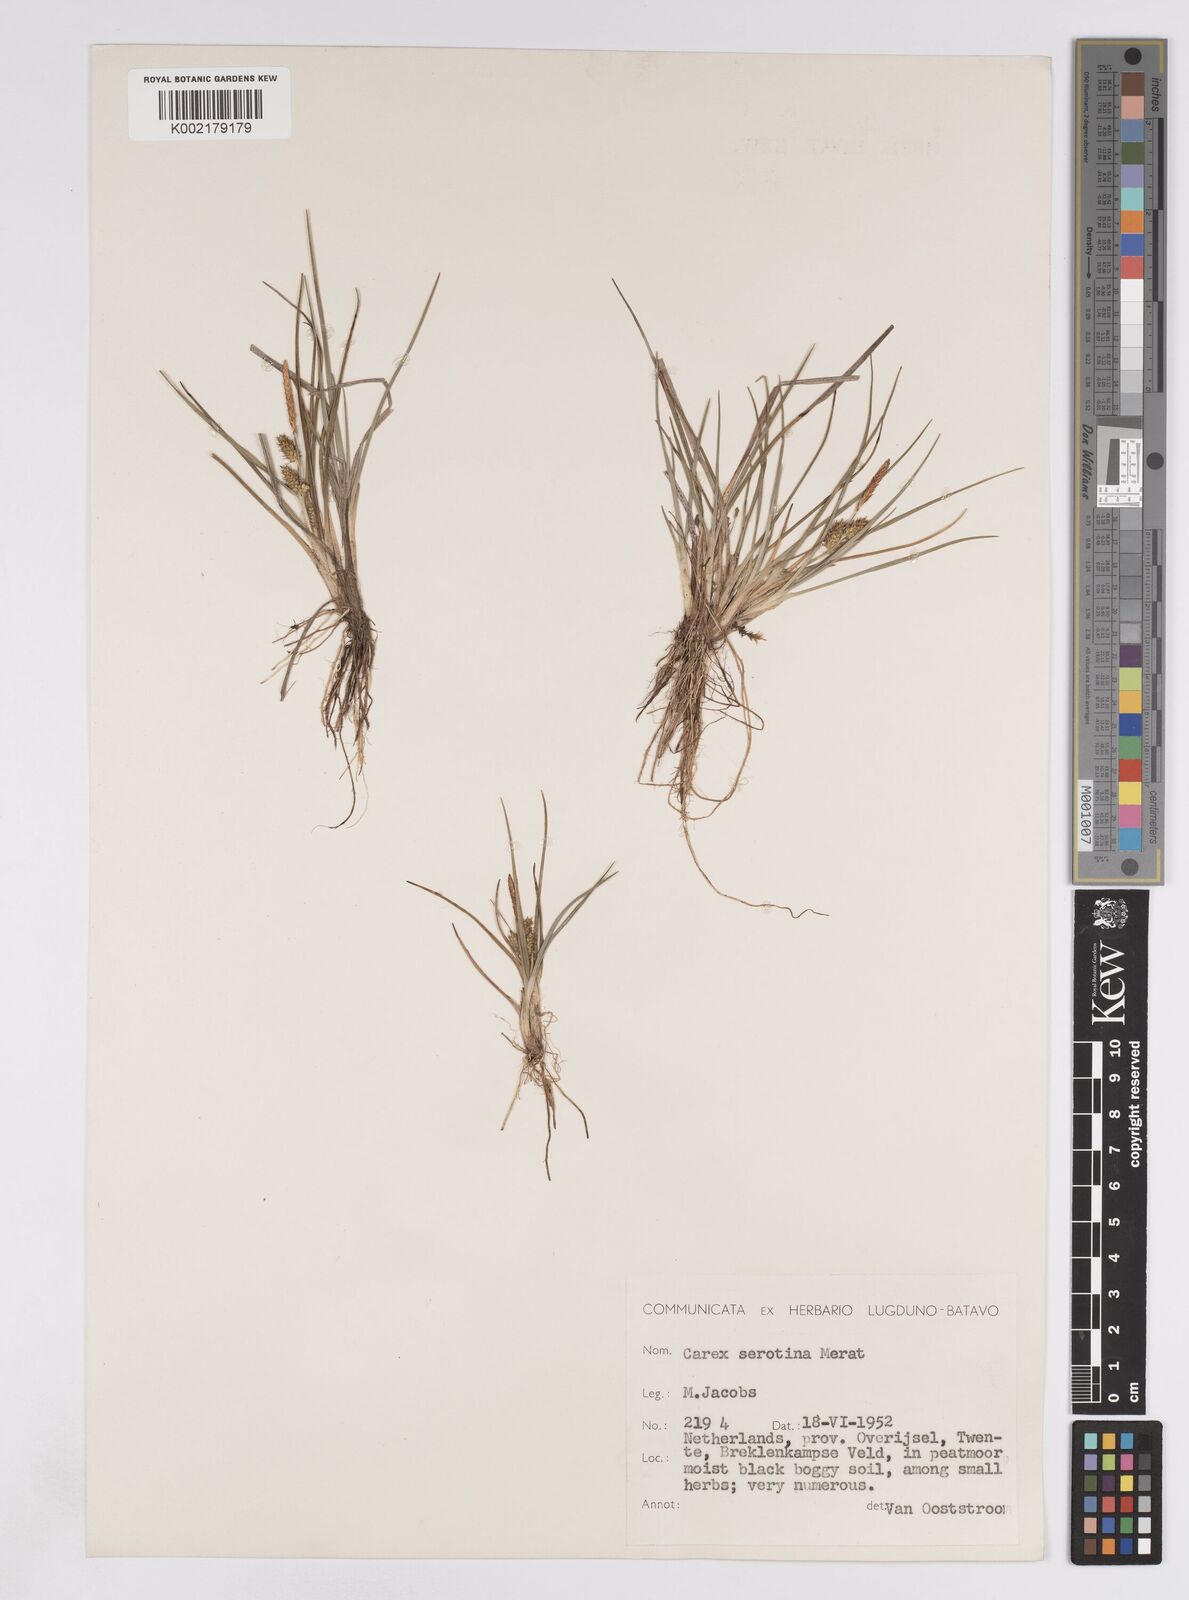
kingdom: Plantae
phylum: Tracheophyta
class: Liliopsida
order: Poales
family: Cyperaceae
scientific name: Cyperaceae
